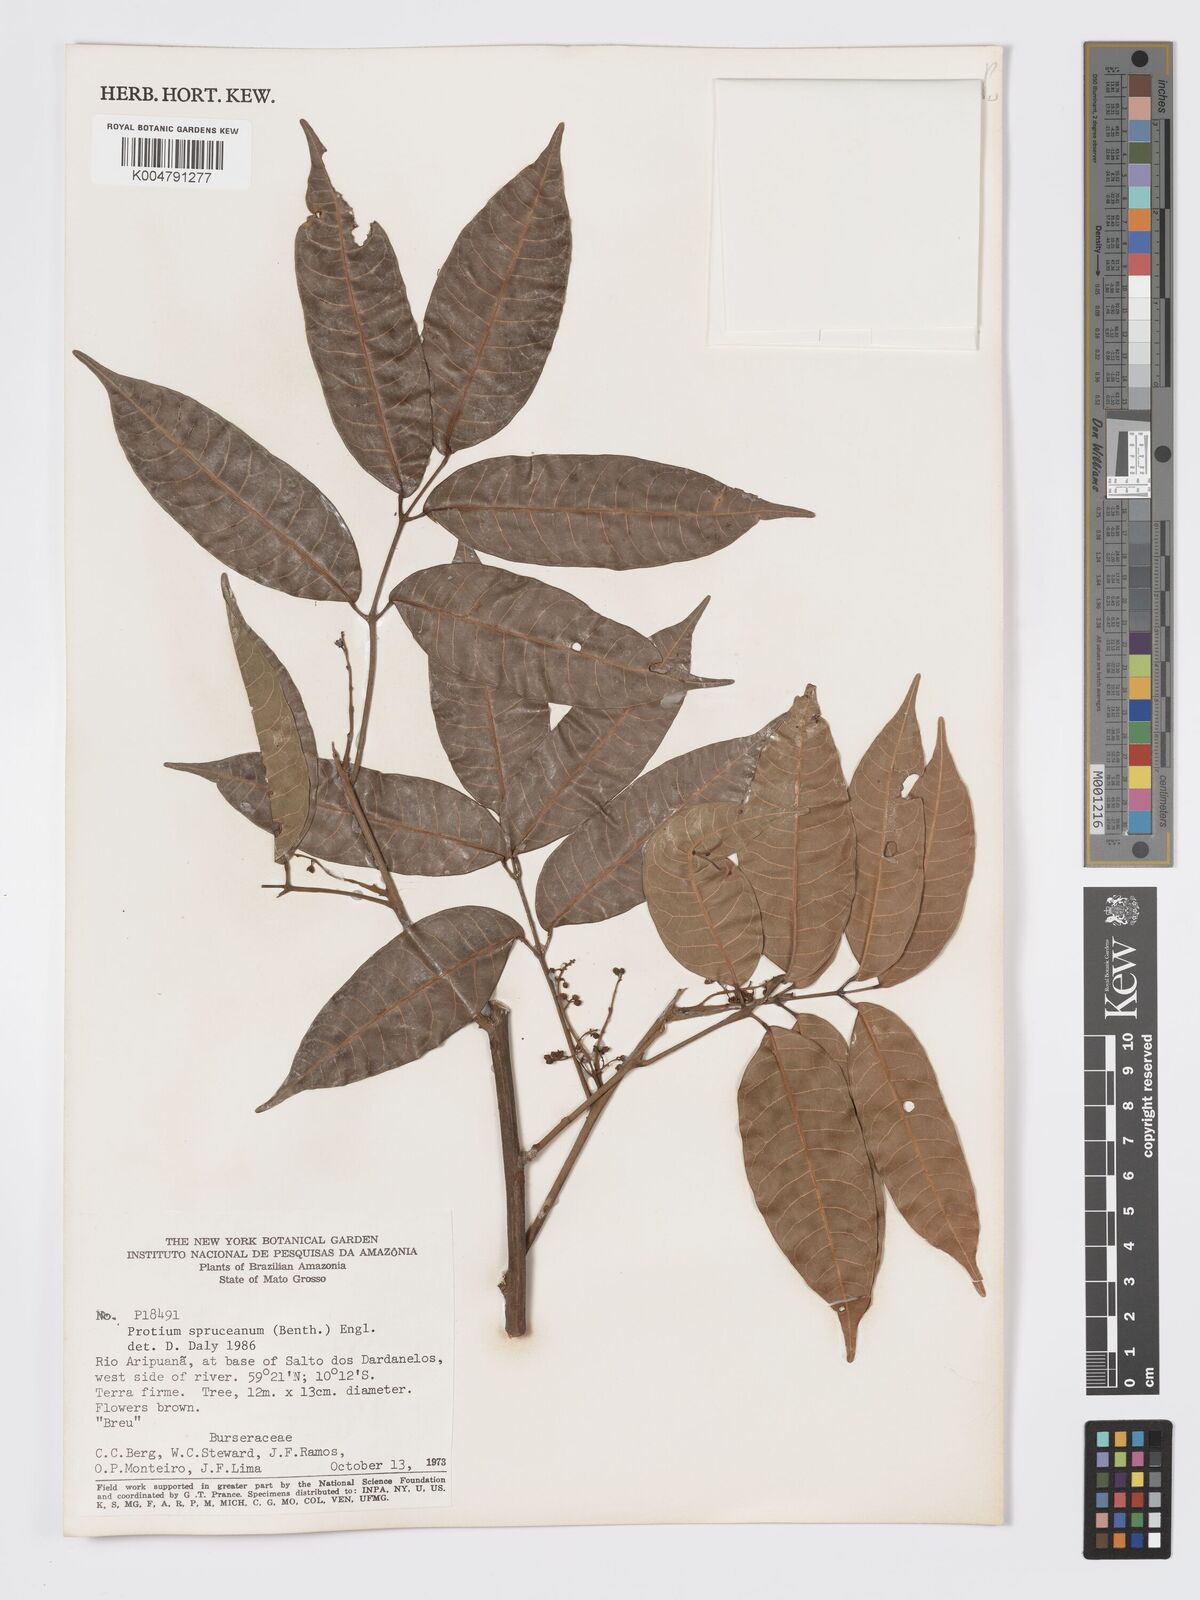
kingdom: Plantae
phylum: Tracheophyta
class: Magnoliopsida
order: Sapindales
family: Burseraceae
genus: Protium
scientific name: Protium spruceanum
